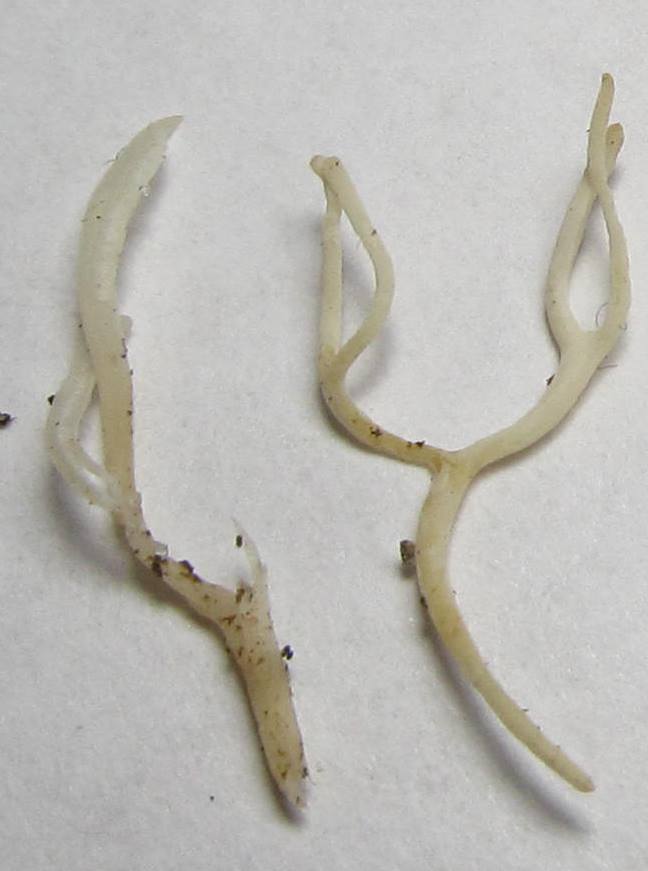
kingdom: Fungi
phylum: Basidiomycota
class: Agaricomycetes
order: Agaricales
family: Clavariaceae
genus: Ramariopsis
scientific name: Ramariopsis subtilis
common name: Slender coral
